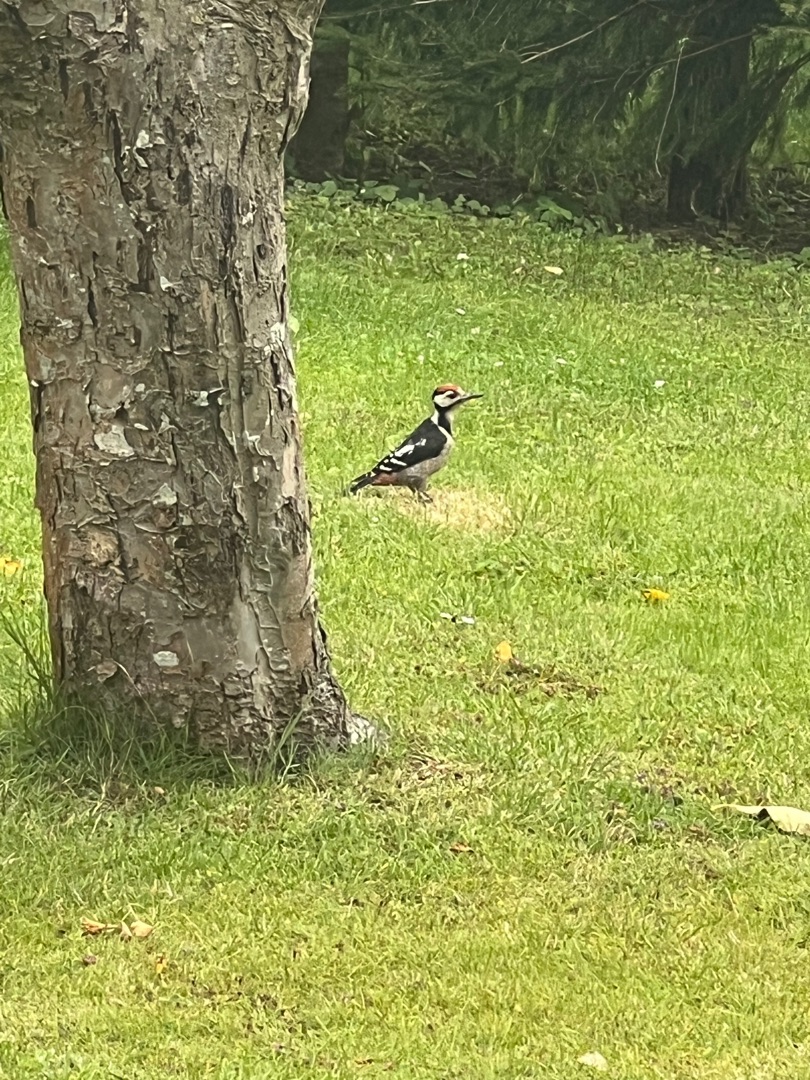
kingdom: Animalia
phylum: Chordata
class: Aves
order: Piciformes
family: Picidae
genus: Dendrocopos
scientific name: Dendrocopos major
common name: Stor flagspætte
